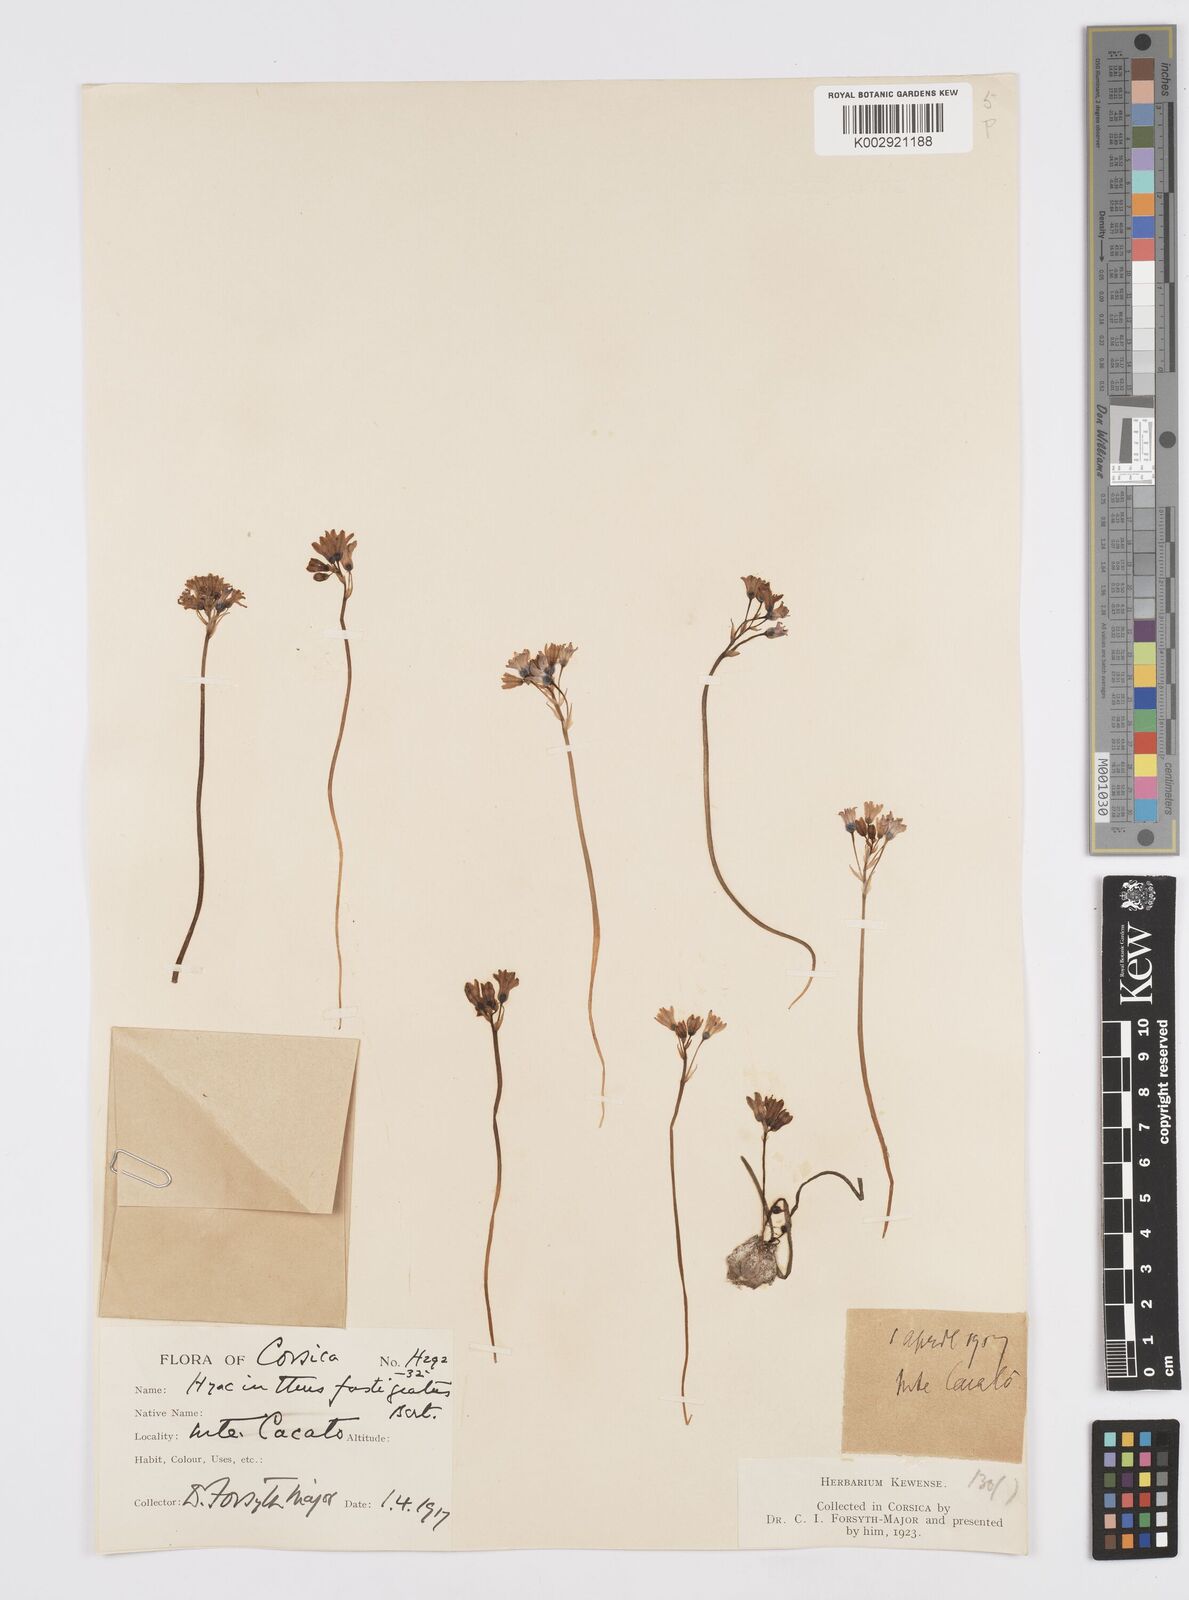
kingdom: Plantae
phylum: Tracheophyta
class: Liliopsida
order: Asparagales
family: Asparagaceae
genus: Brimeura
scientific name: Brimeura fastigiata
